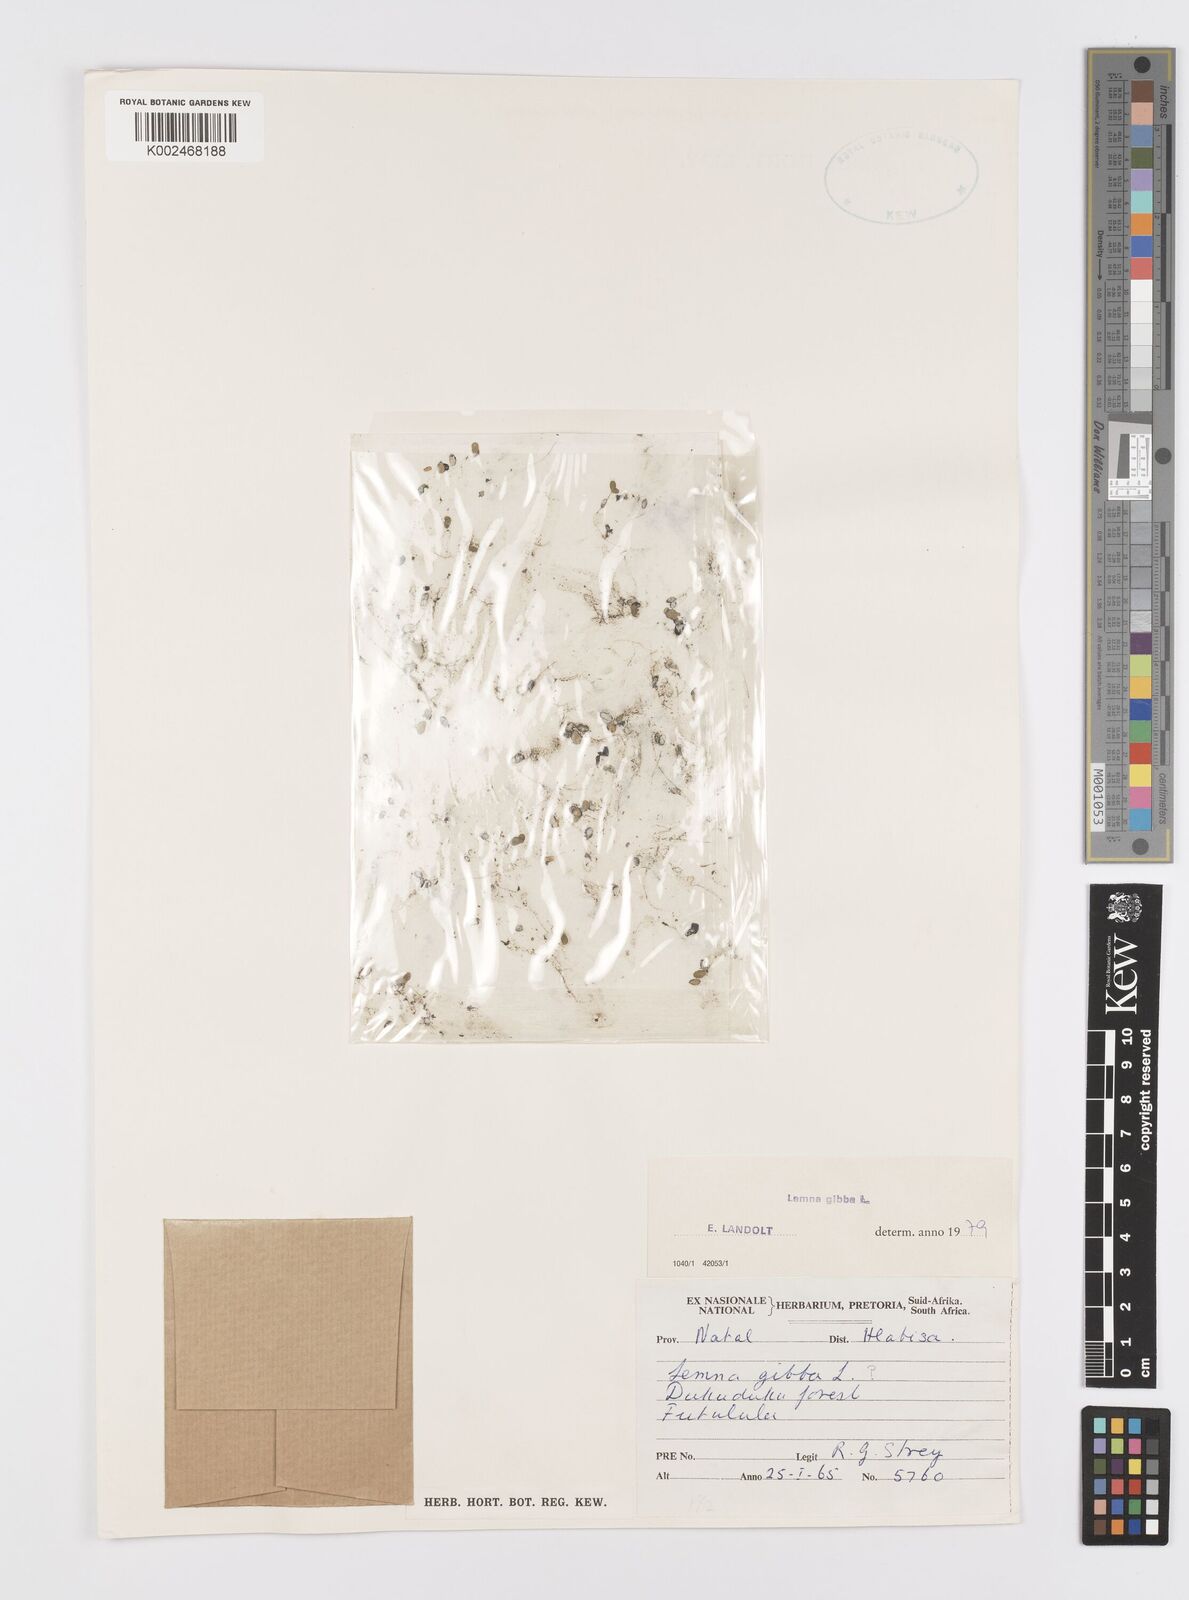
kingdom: Plantae
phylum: Tracheophyta
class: Liliopsida
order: Alismatales
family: Araceae
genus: Lemna
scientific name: Lemna gibba
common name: Fat duckweed
